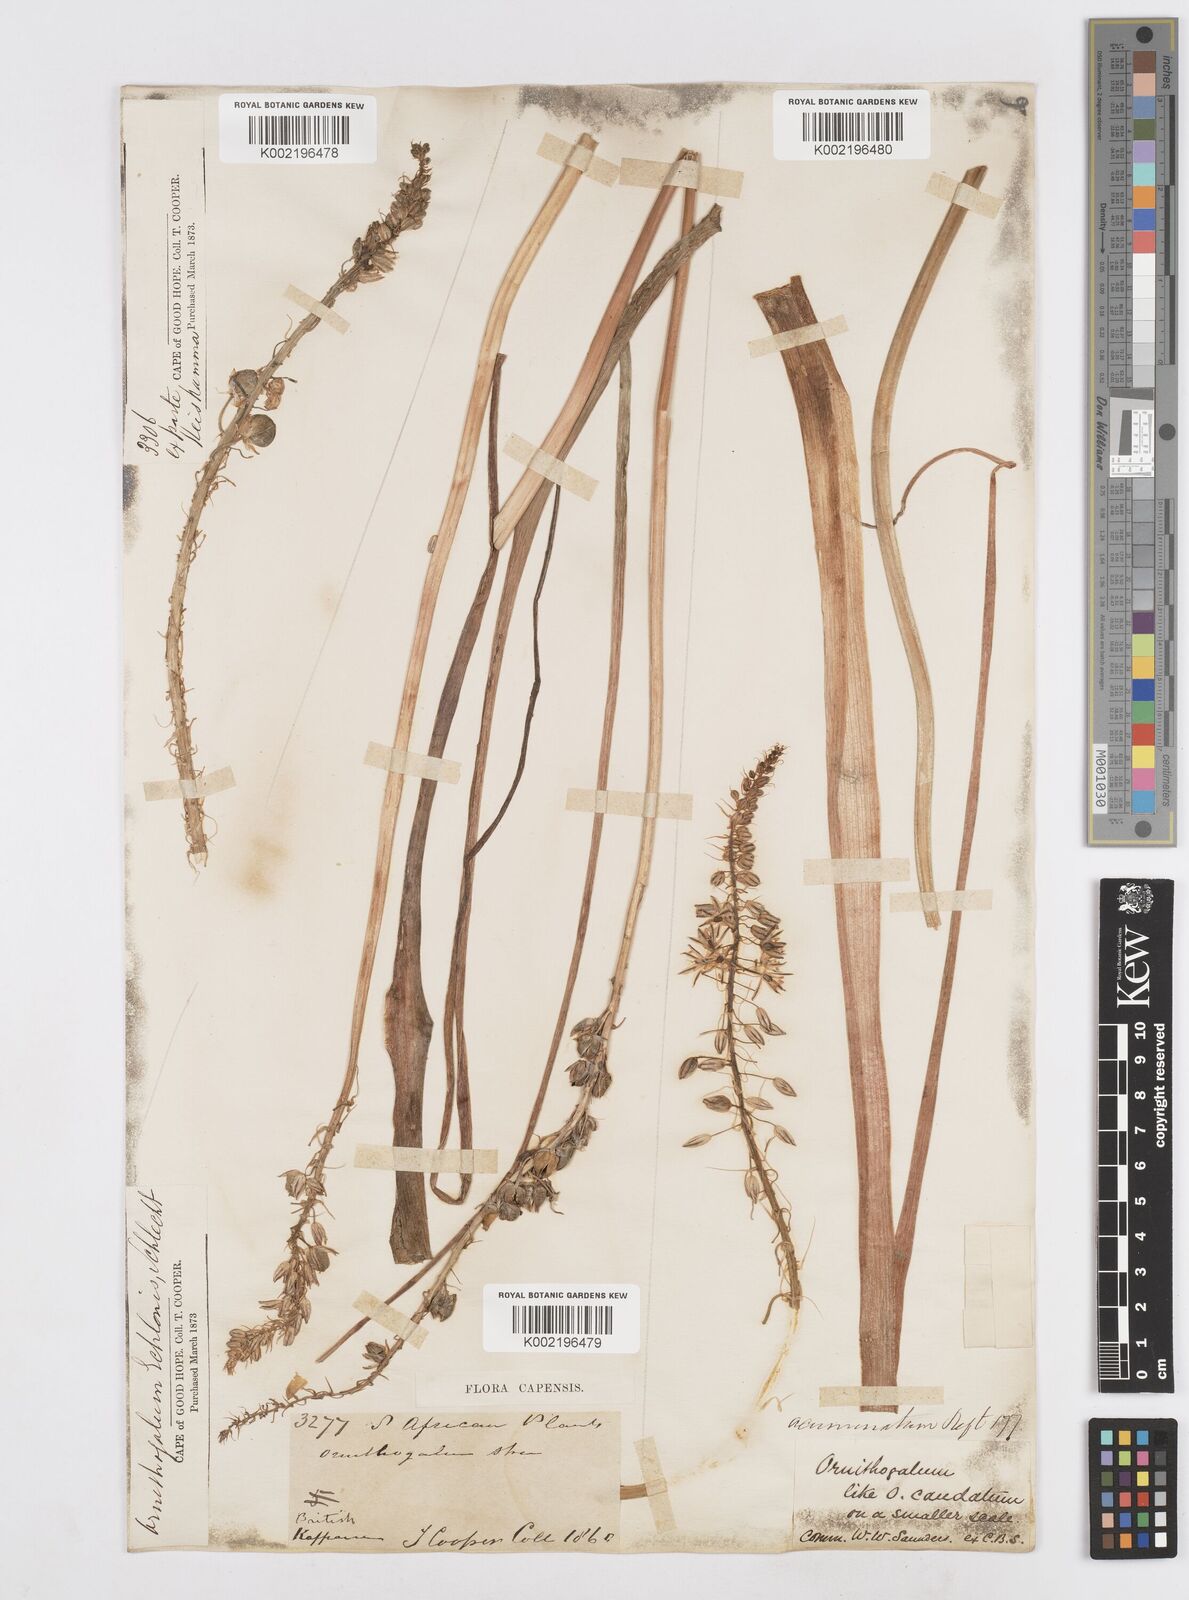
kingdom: Plantae
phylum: Tracheophyta
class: Liliopsida
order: Asparagales
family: Asparagaceae
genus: Albuca
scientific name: Albuca virens
